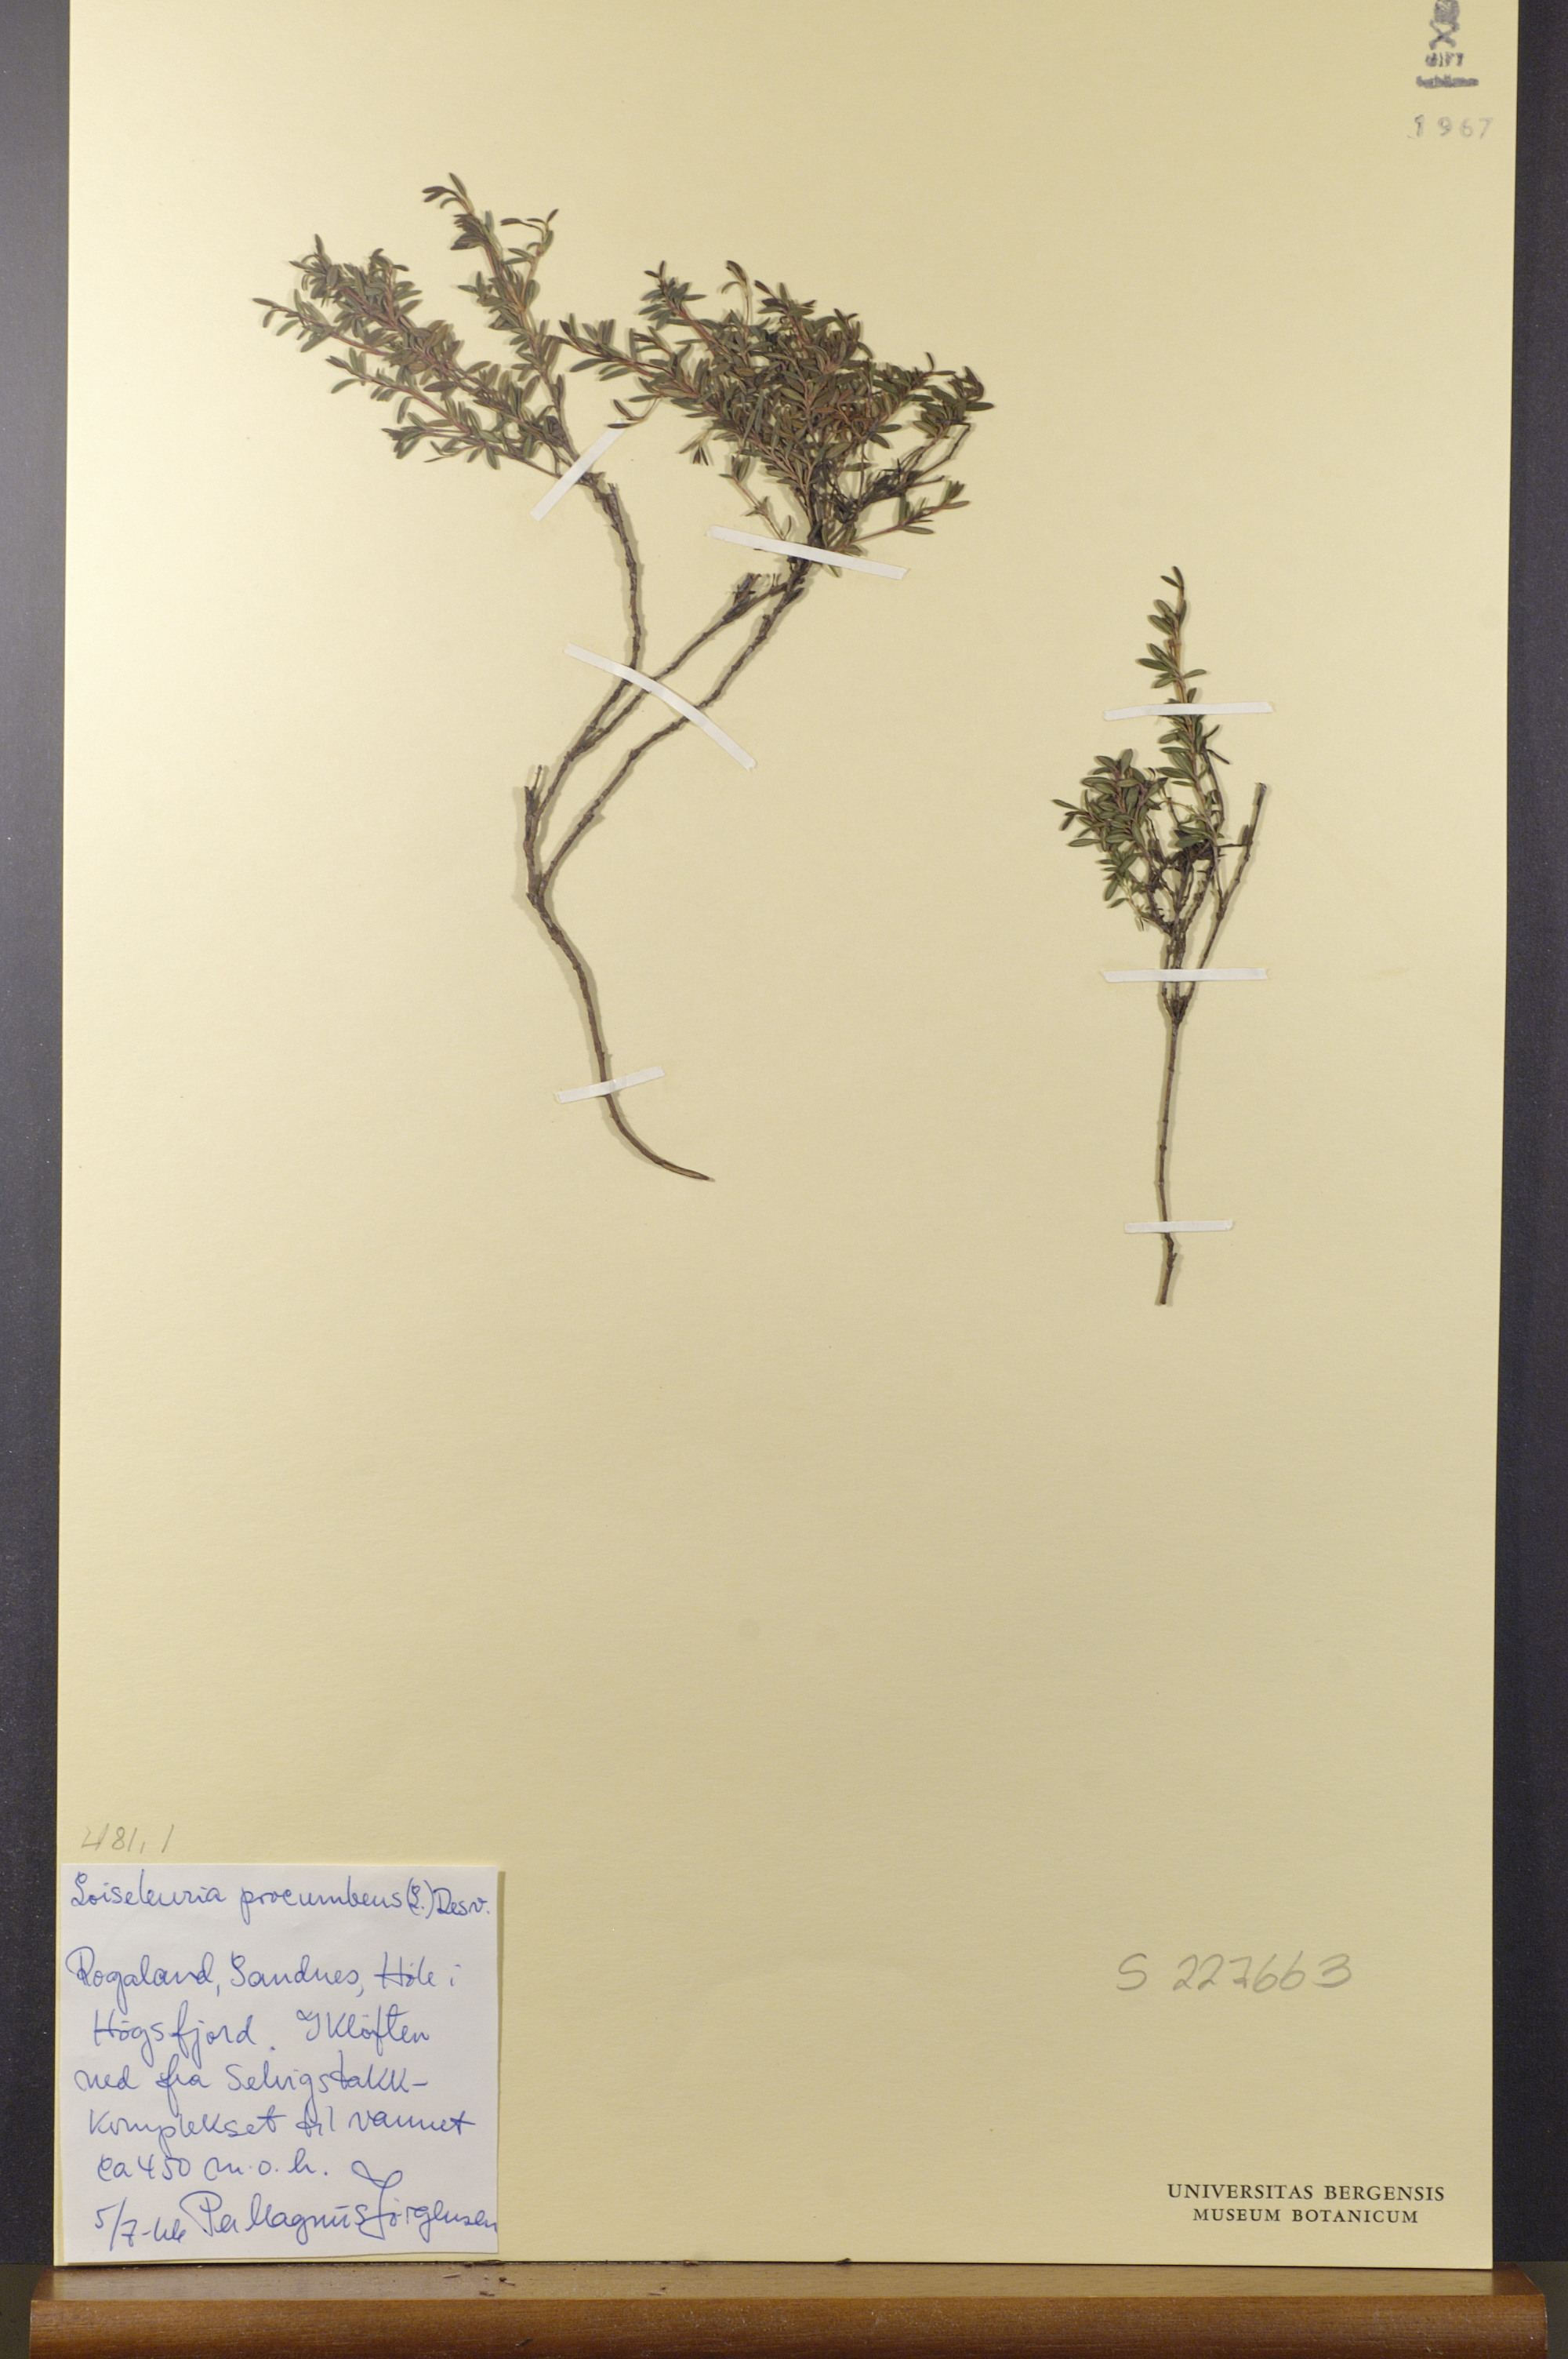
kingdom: Plantae
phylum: Tracheophyta
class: Magnoliopsida
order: Ericales
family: Ericaceae
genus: Kalmia
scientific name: Kalmia procumbens
